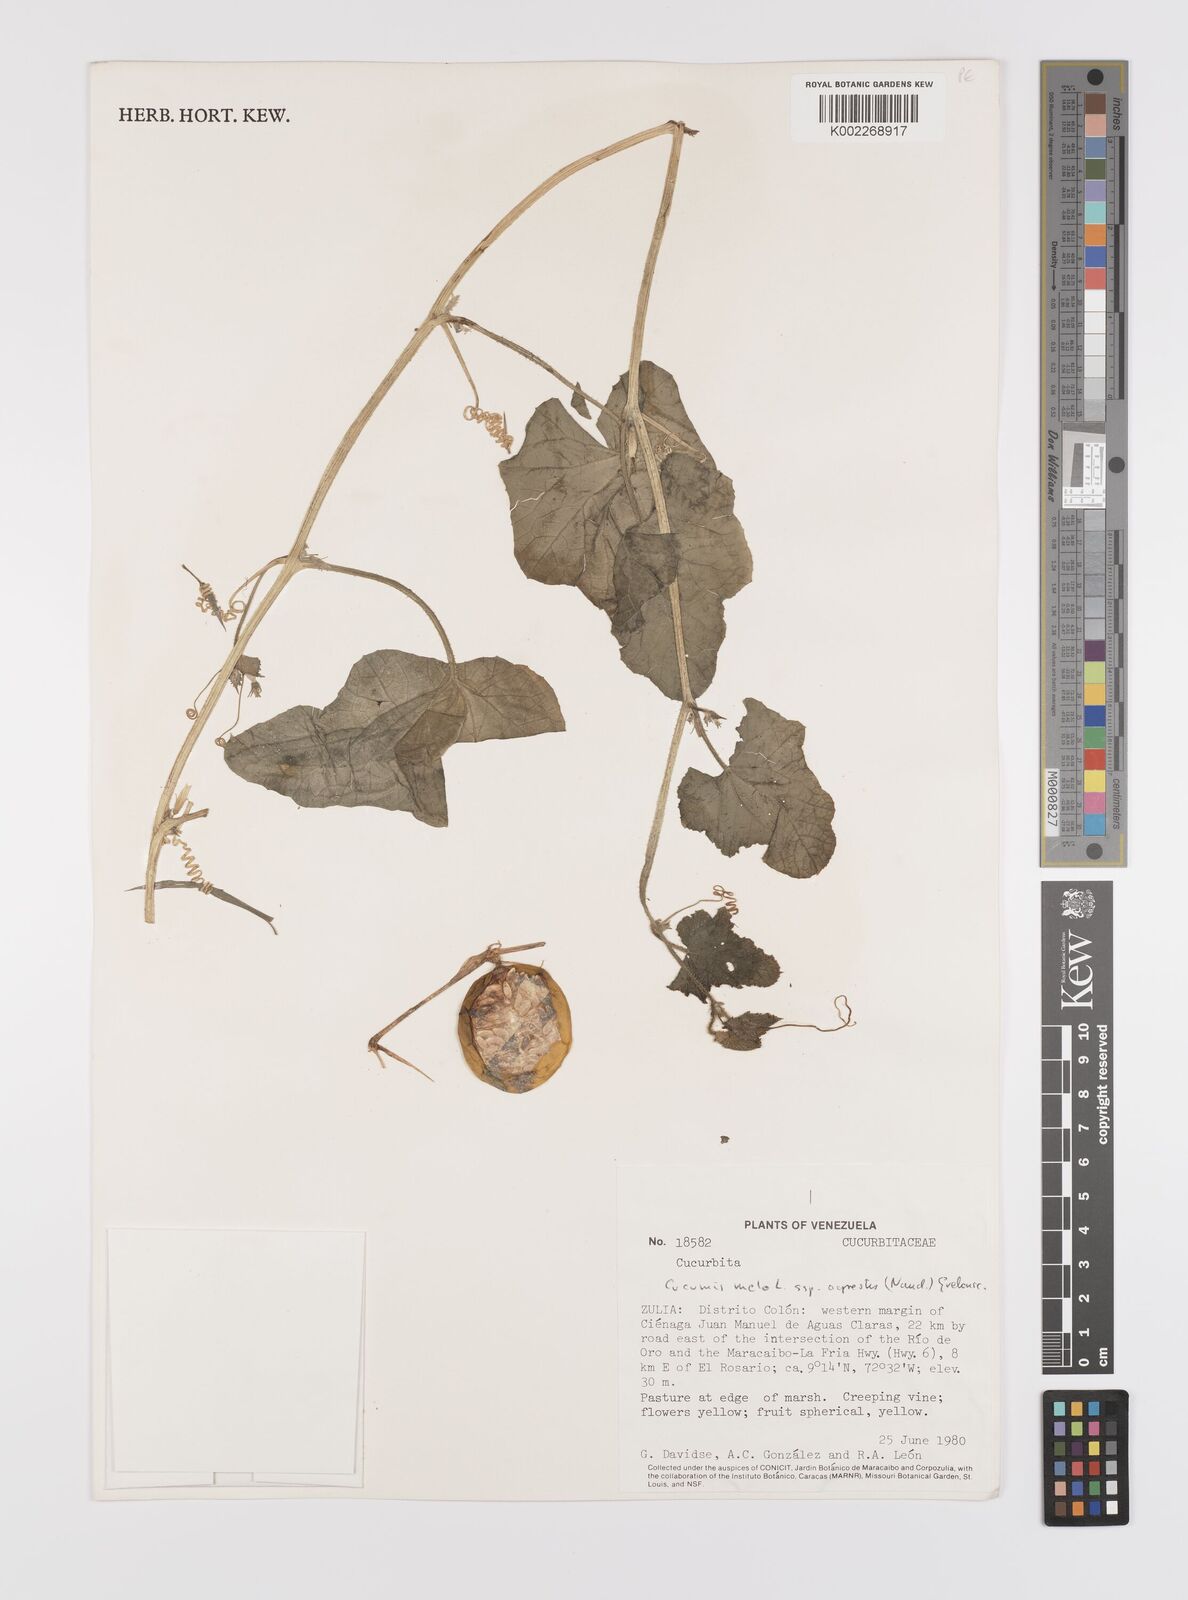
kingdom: Plantae
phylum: Tracheophyta
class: Magnoliopsida
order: Cucurbitales
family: Cucurbitaceae
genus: Cucumis
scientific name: Cucumis melo
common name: Melon
